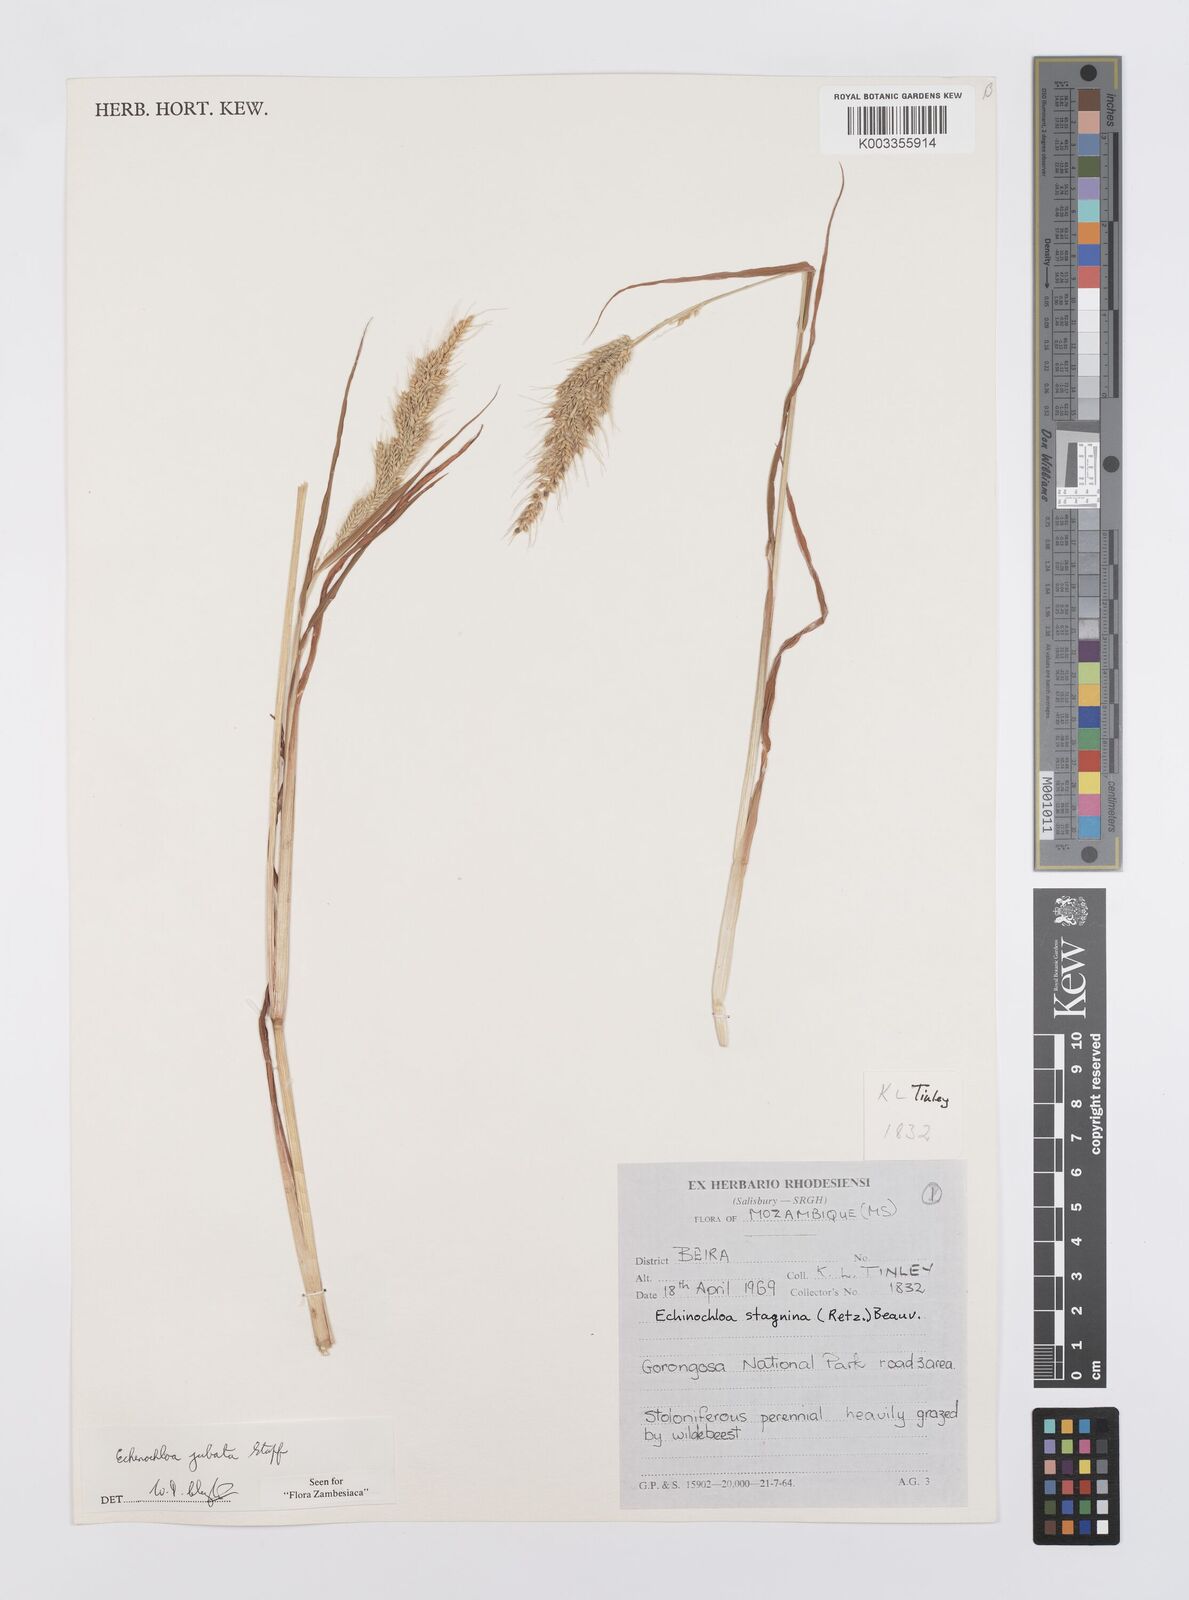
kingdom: Plantae
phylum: Tracheophyta
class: Liliopsida
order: Poales
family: Poaceae
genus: Echinochloa
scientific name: Echinochloa jubata
